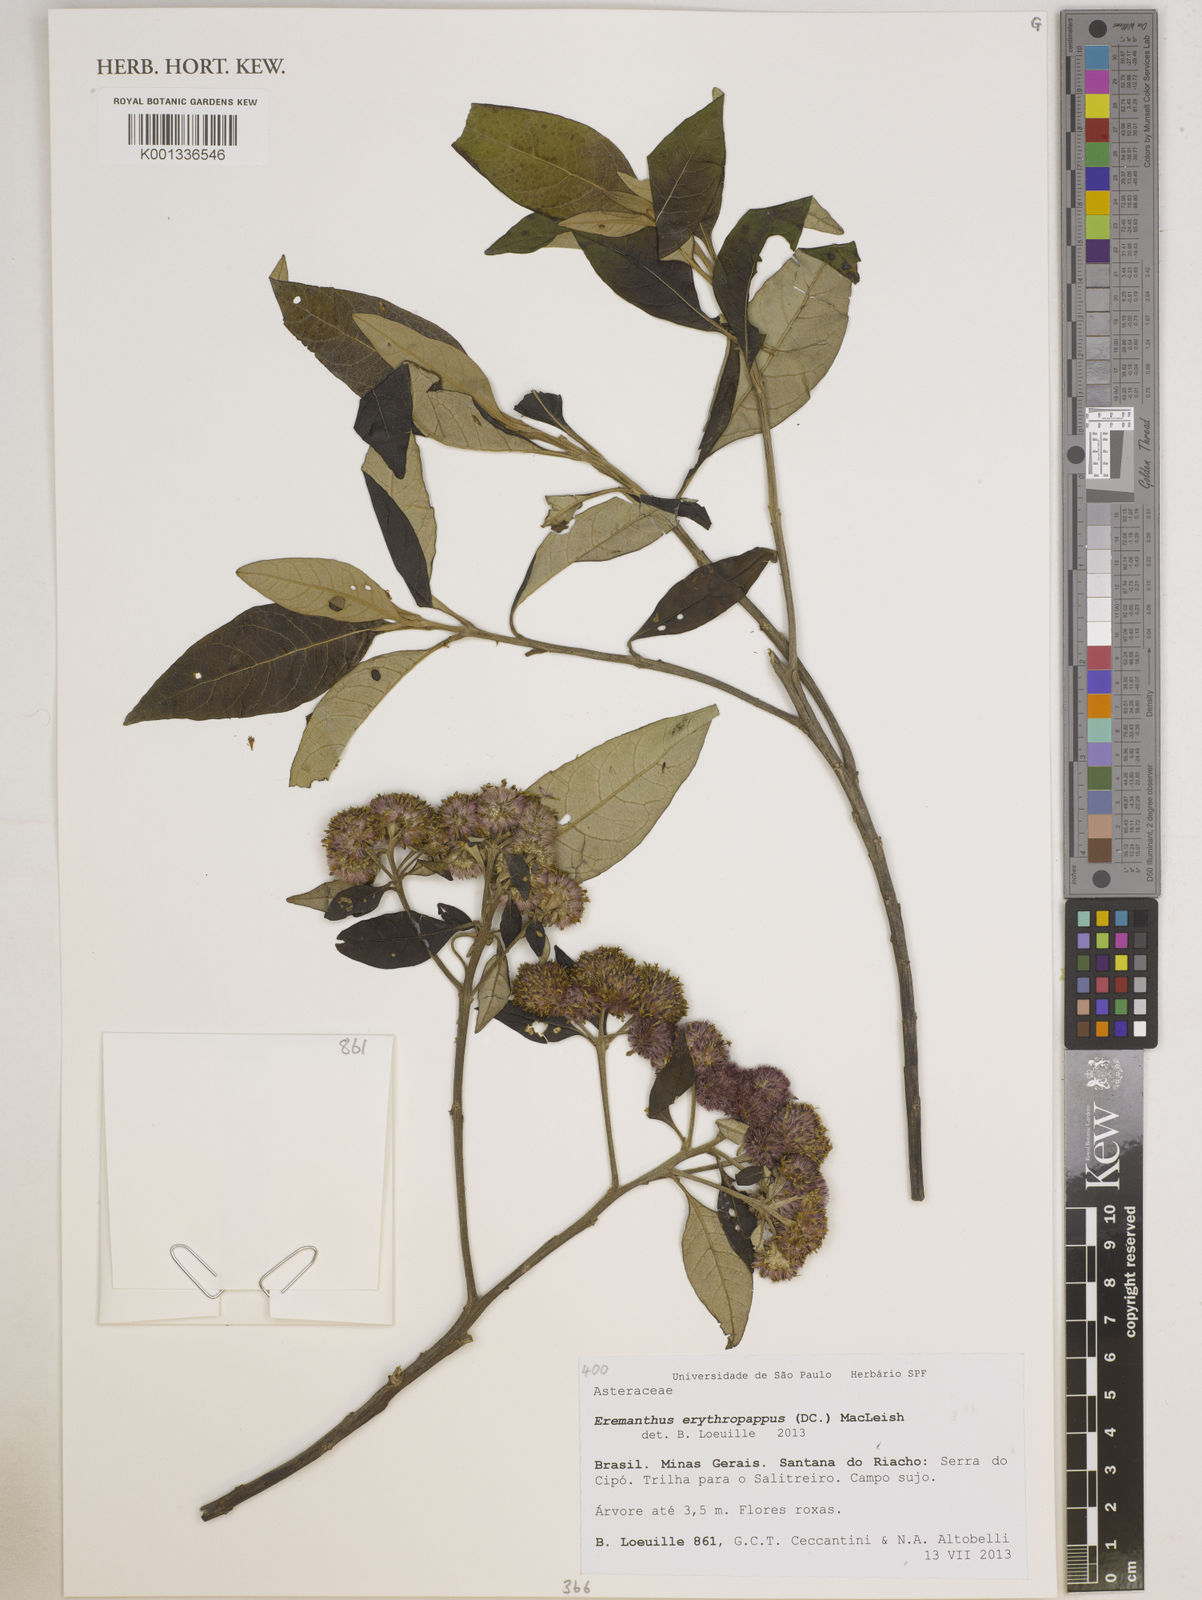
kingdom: Plantae
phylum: Tracheophyta
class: Magnoliopsida
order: Asterales
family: Asteraceae
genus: Eremanthus
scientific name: Eremanthus erythropappus
